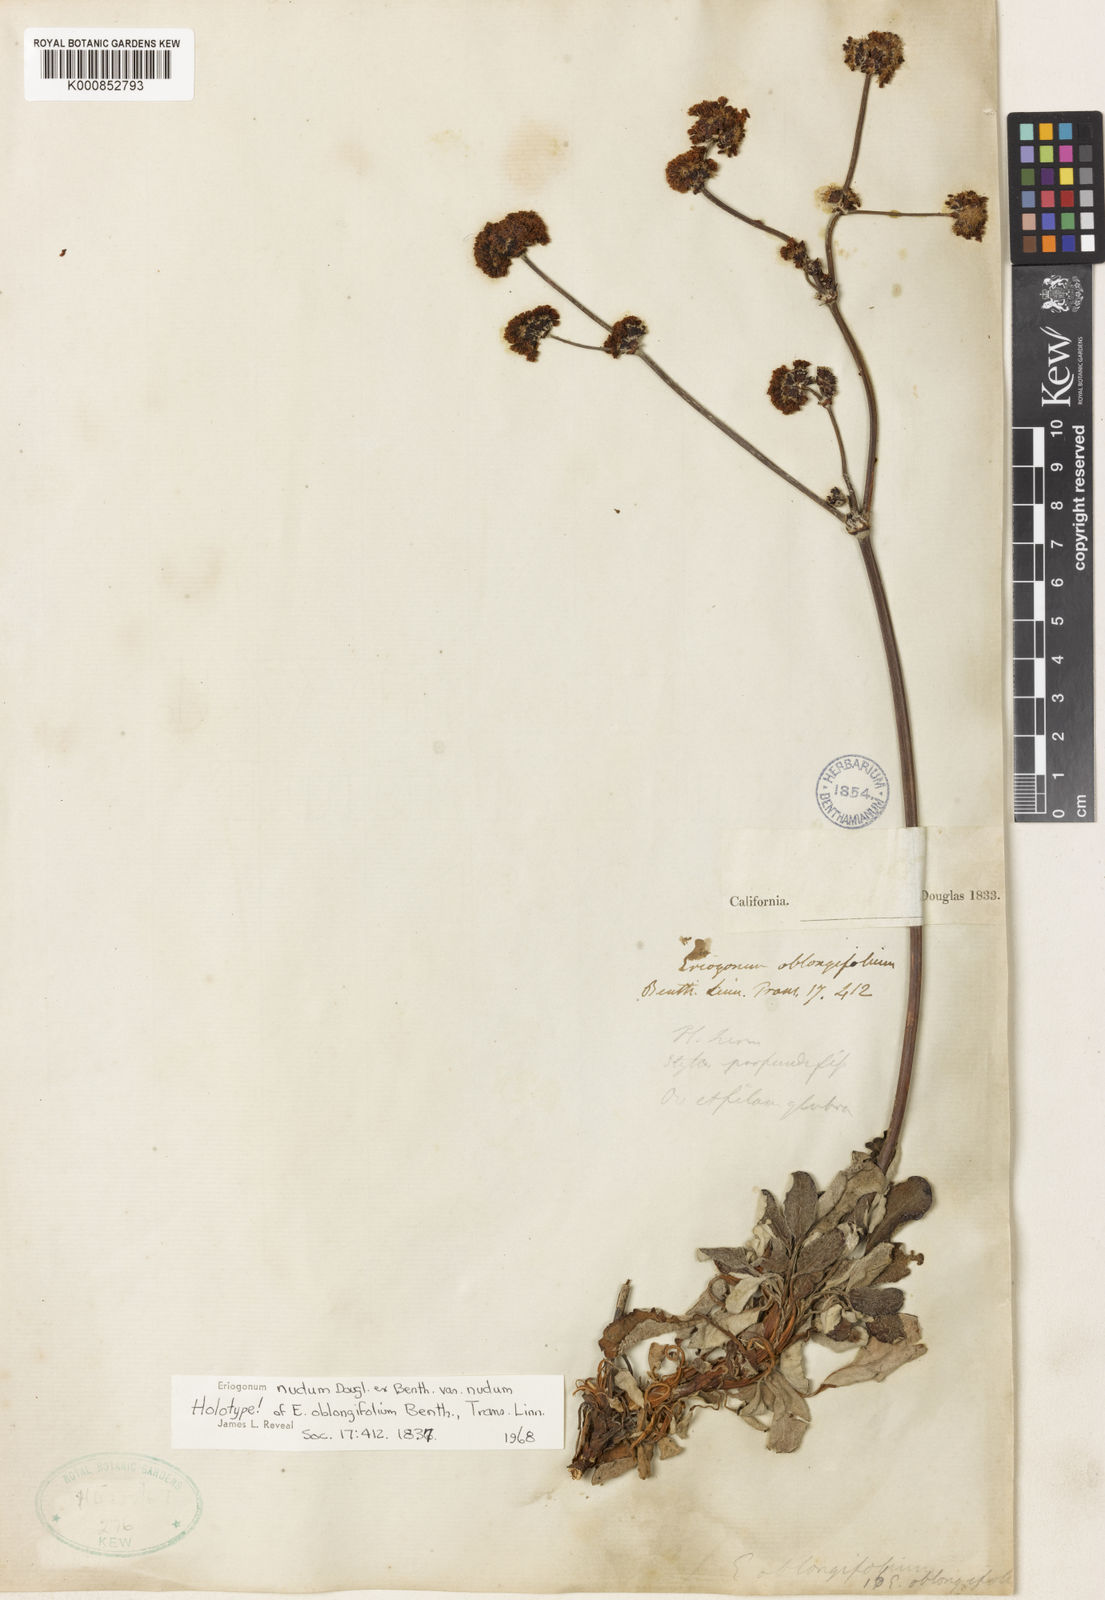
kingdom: Plantae
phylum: Tracheophyta
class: Magnoliopsida
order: Caryophyllales
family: Polygonaceae
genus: Eriogonum
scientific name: Eriogonum nudum
